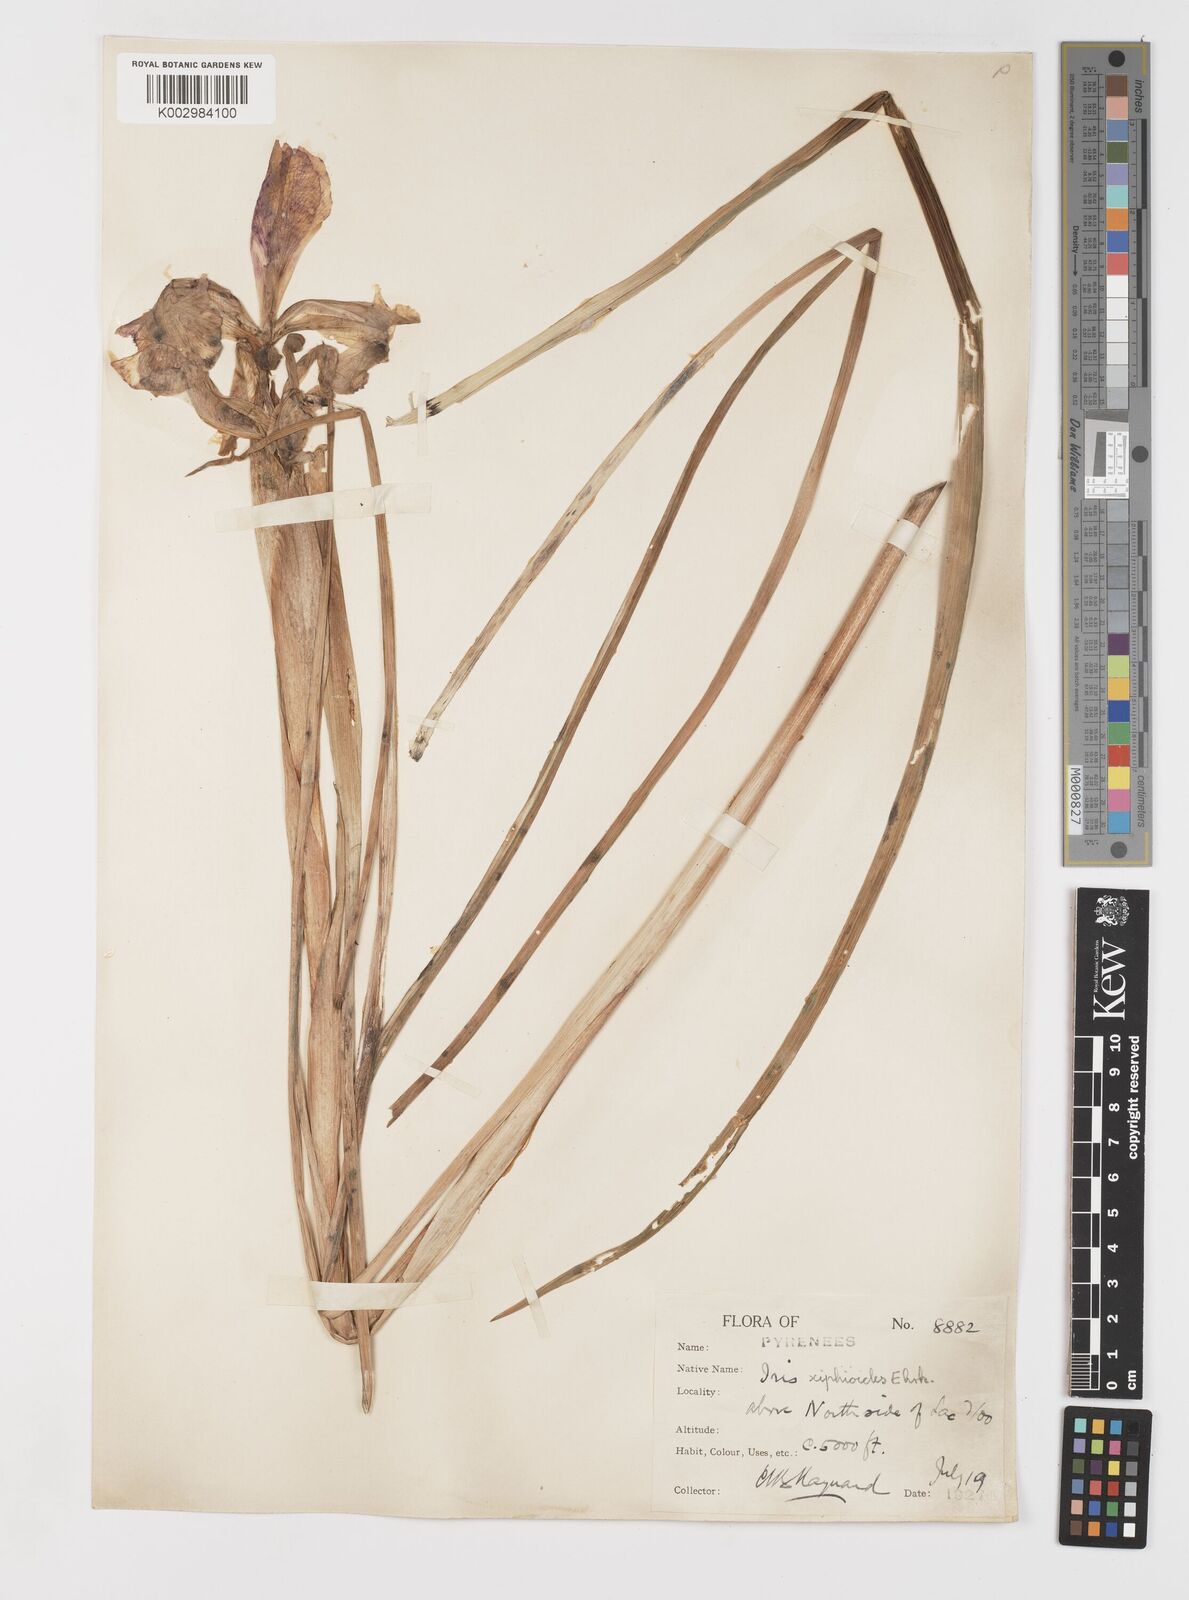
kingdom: Plantae
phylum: Tracheophyta
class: Liliopsida
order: Asparagales
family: Iridaceae
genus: Iris
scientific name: Iris jacquinii
